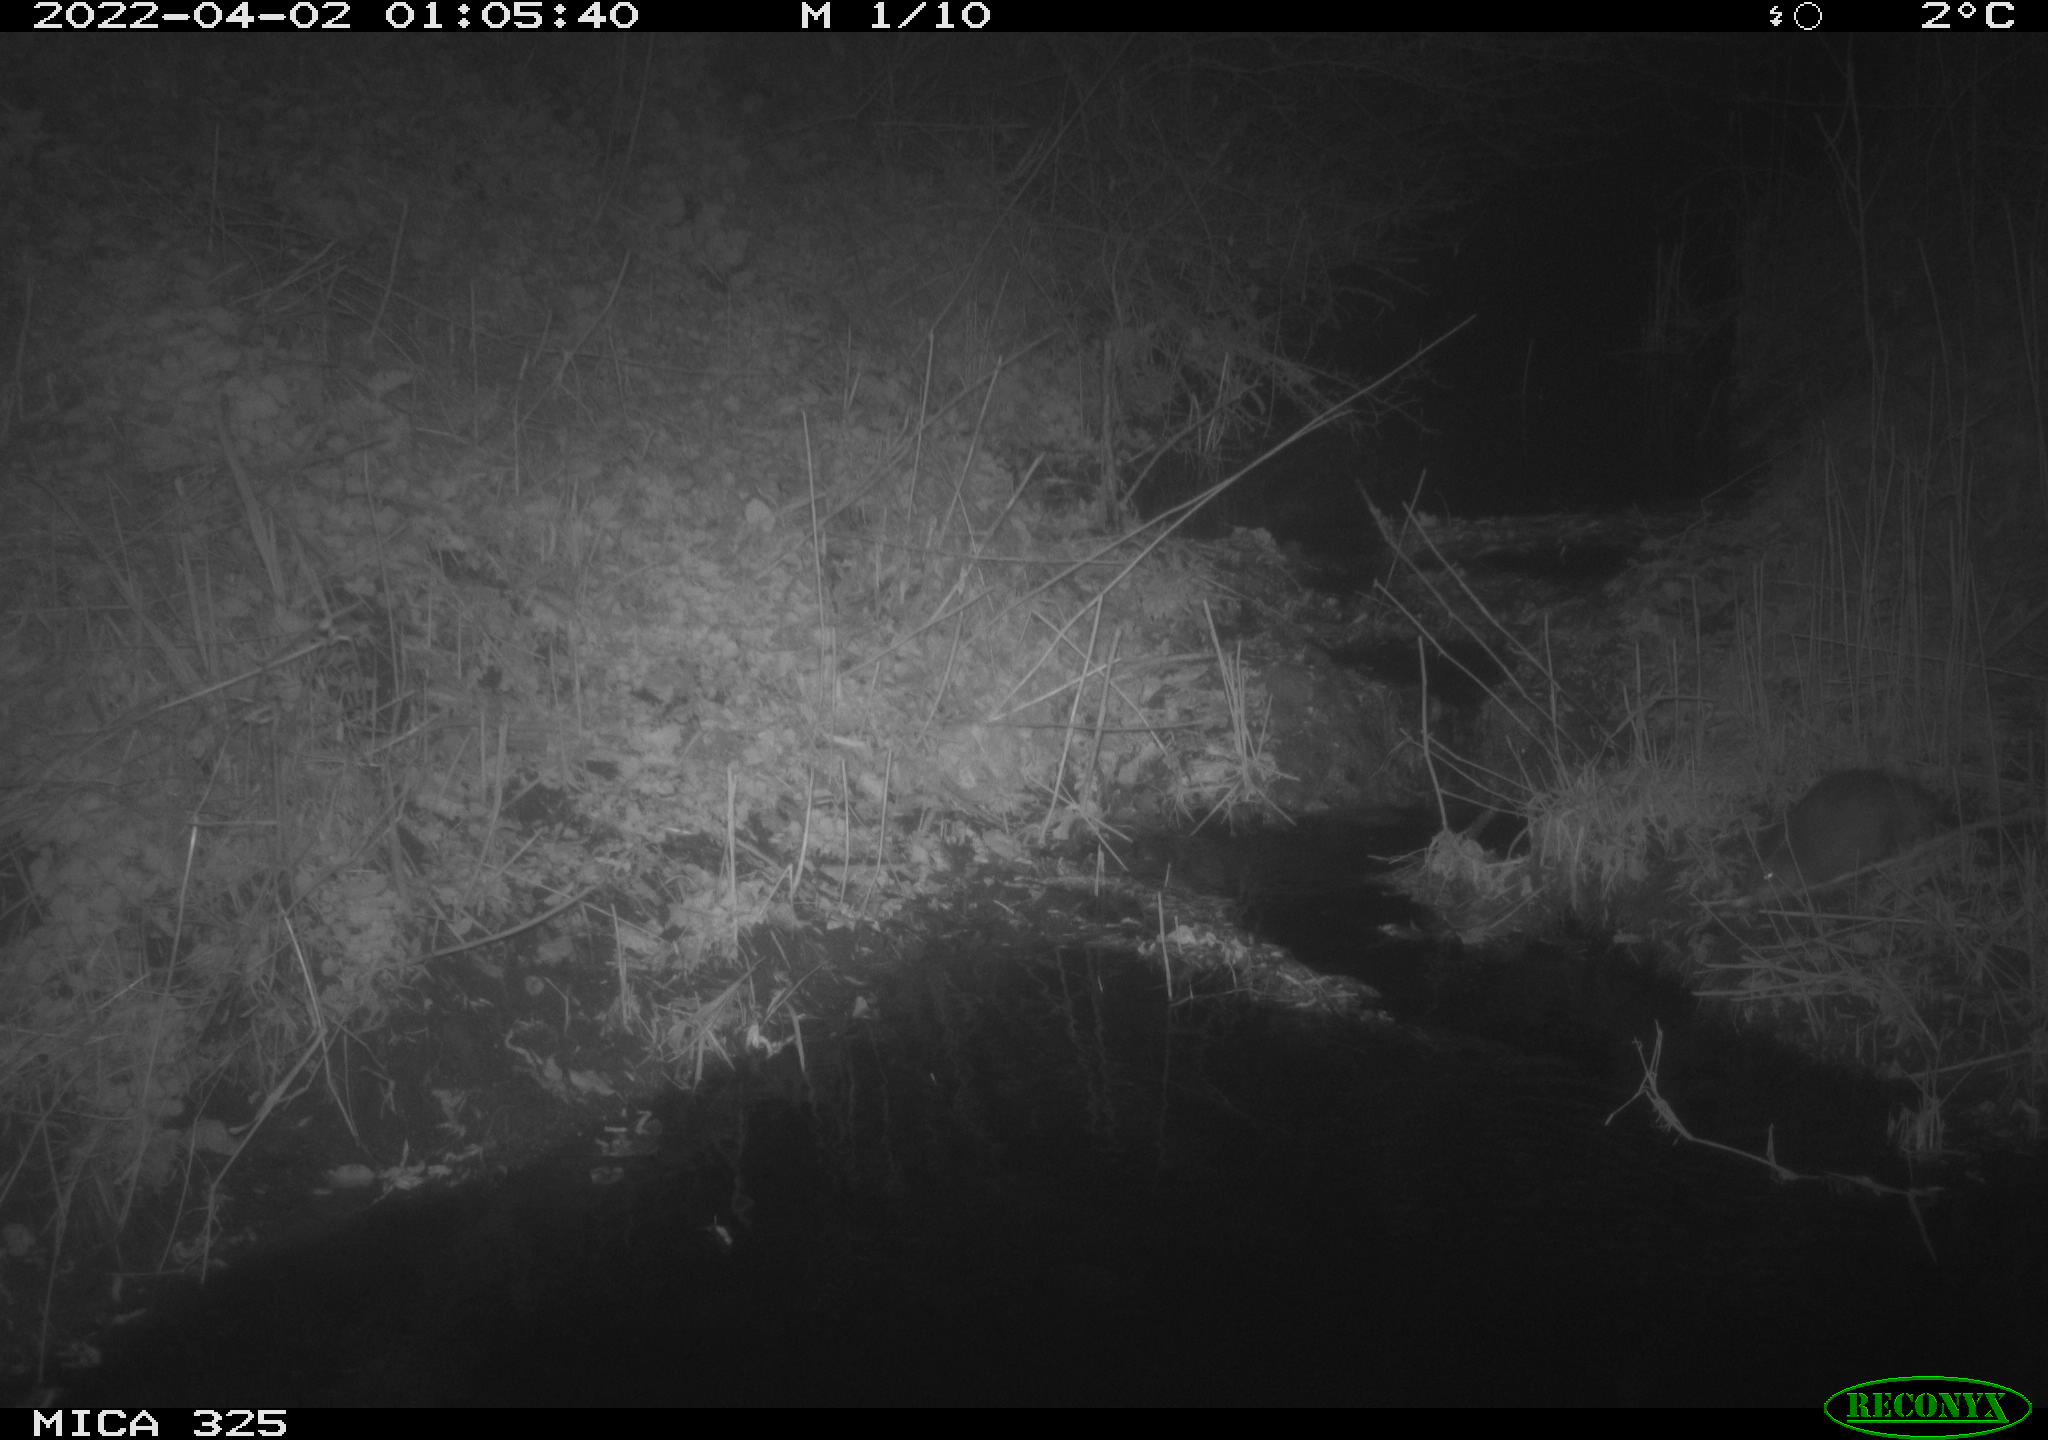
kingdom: Animalia
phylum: Chordata
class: Mammalia
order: Rodentia
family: Cricetidae
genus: Ondatra
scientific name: Ondatra zibethicus
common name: Muskrat
